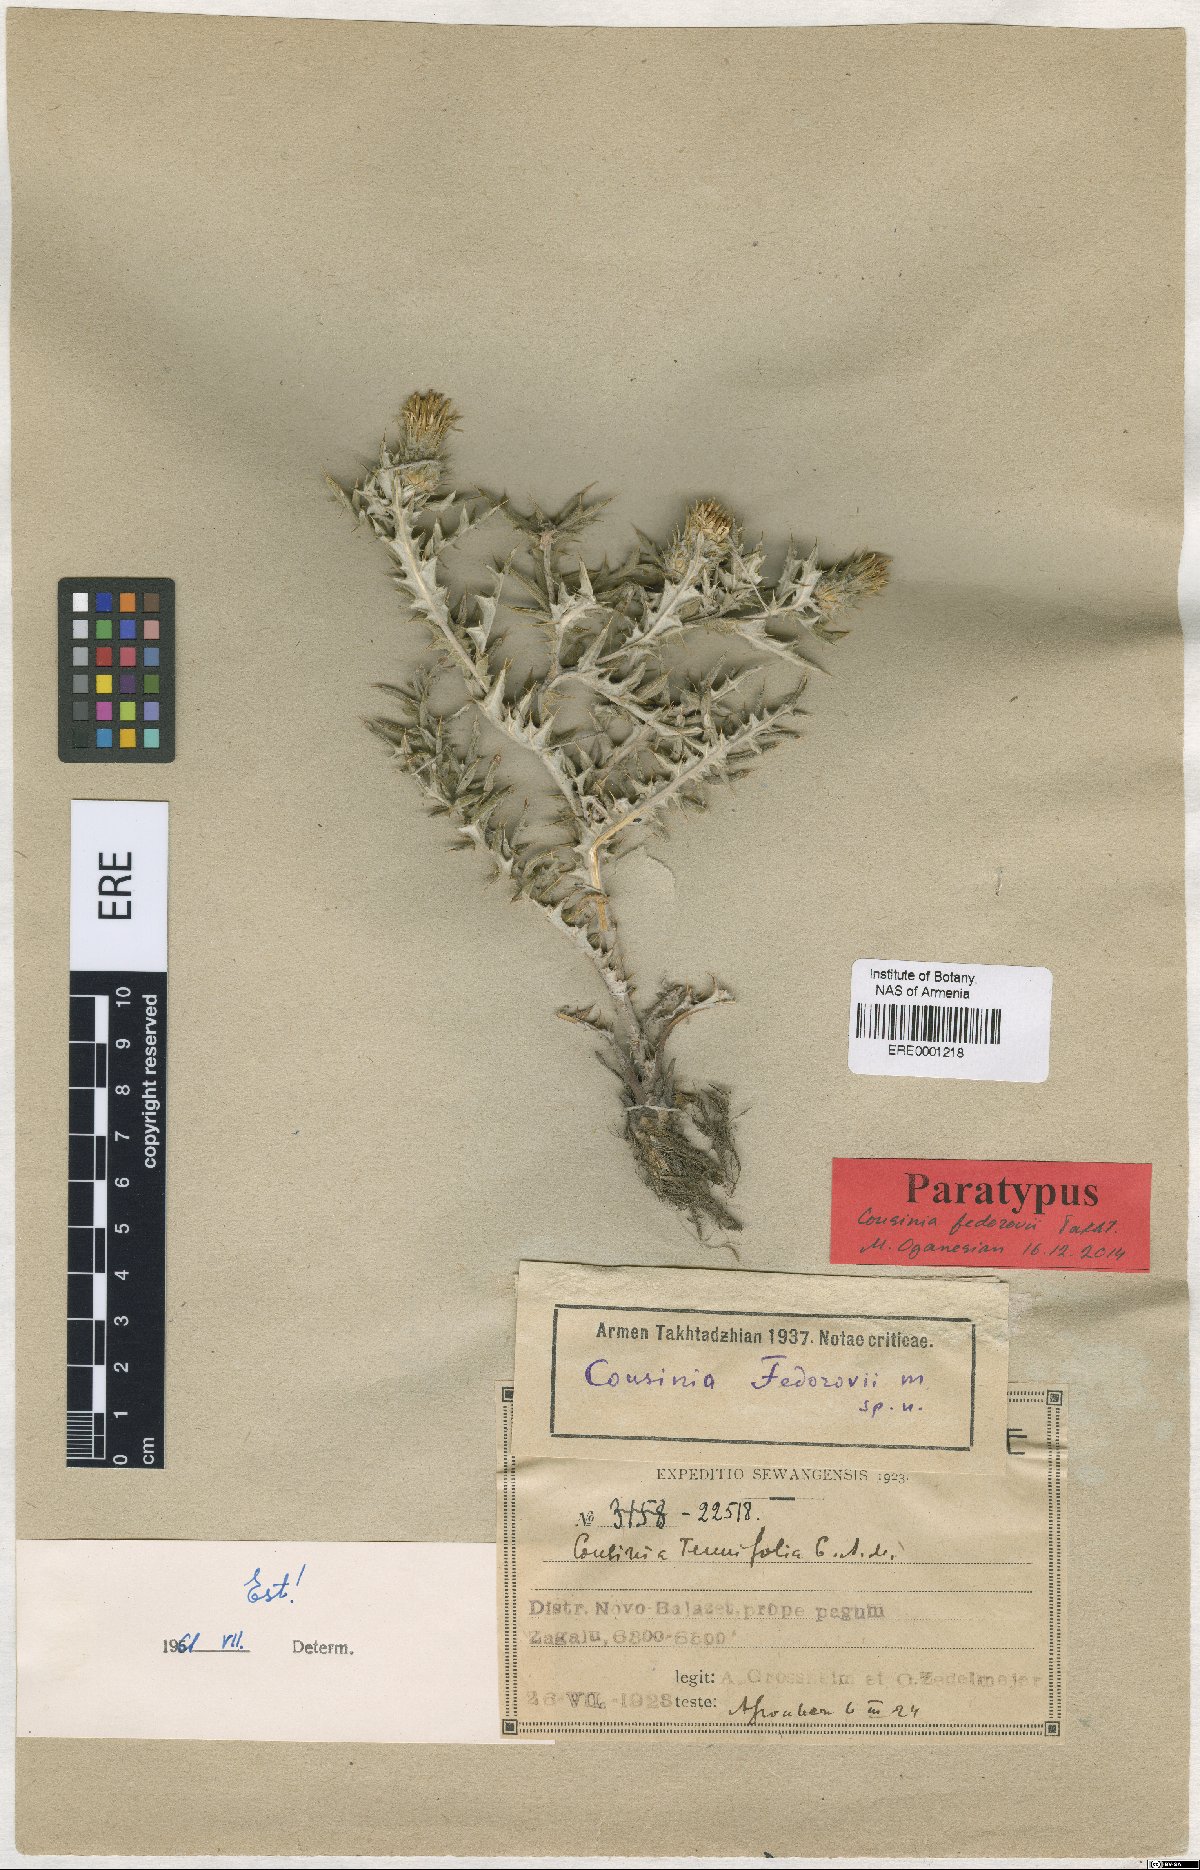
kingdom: Plantae
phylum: Tracheophyta
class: Magnoliopsida
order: Asterales
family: Asteraceae
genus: Cousinia
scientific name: Cousinia fedorovii
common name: Fedorov's cousinia
